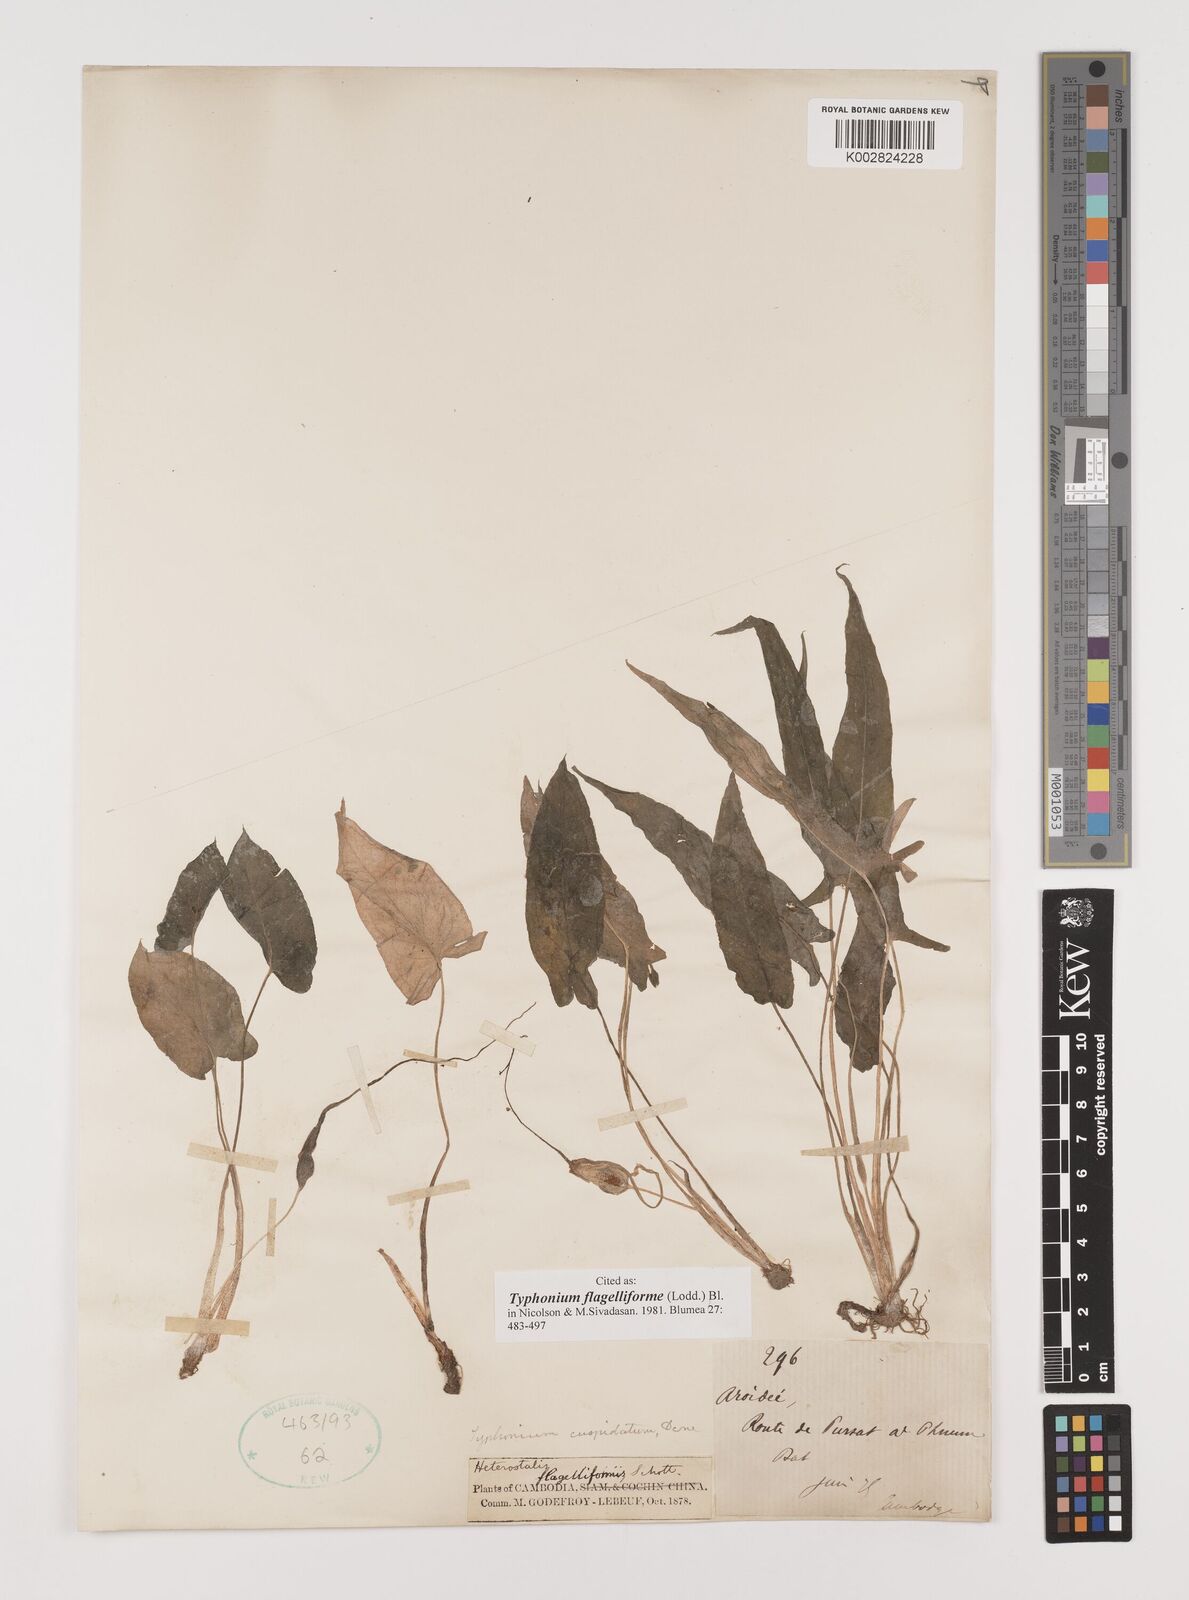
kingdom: Plantae
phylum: Tracheophyta
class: Liliopsida
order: Alismatales
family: Araceae
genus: Typhonium
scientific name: Typhonium flagelliforme
